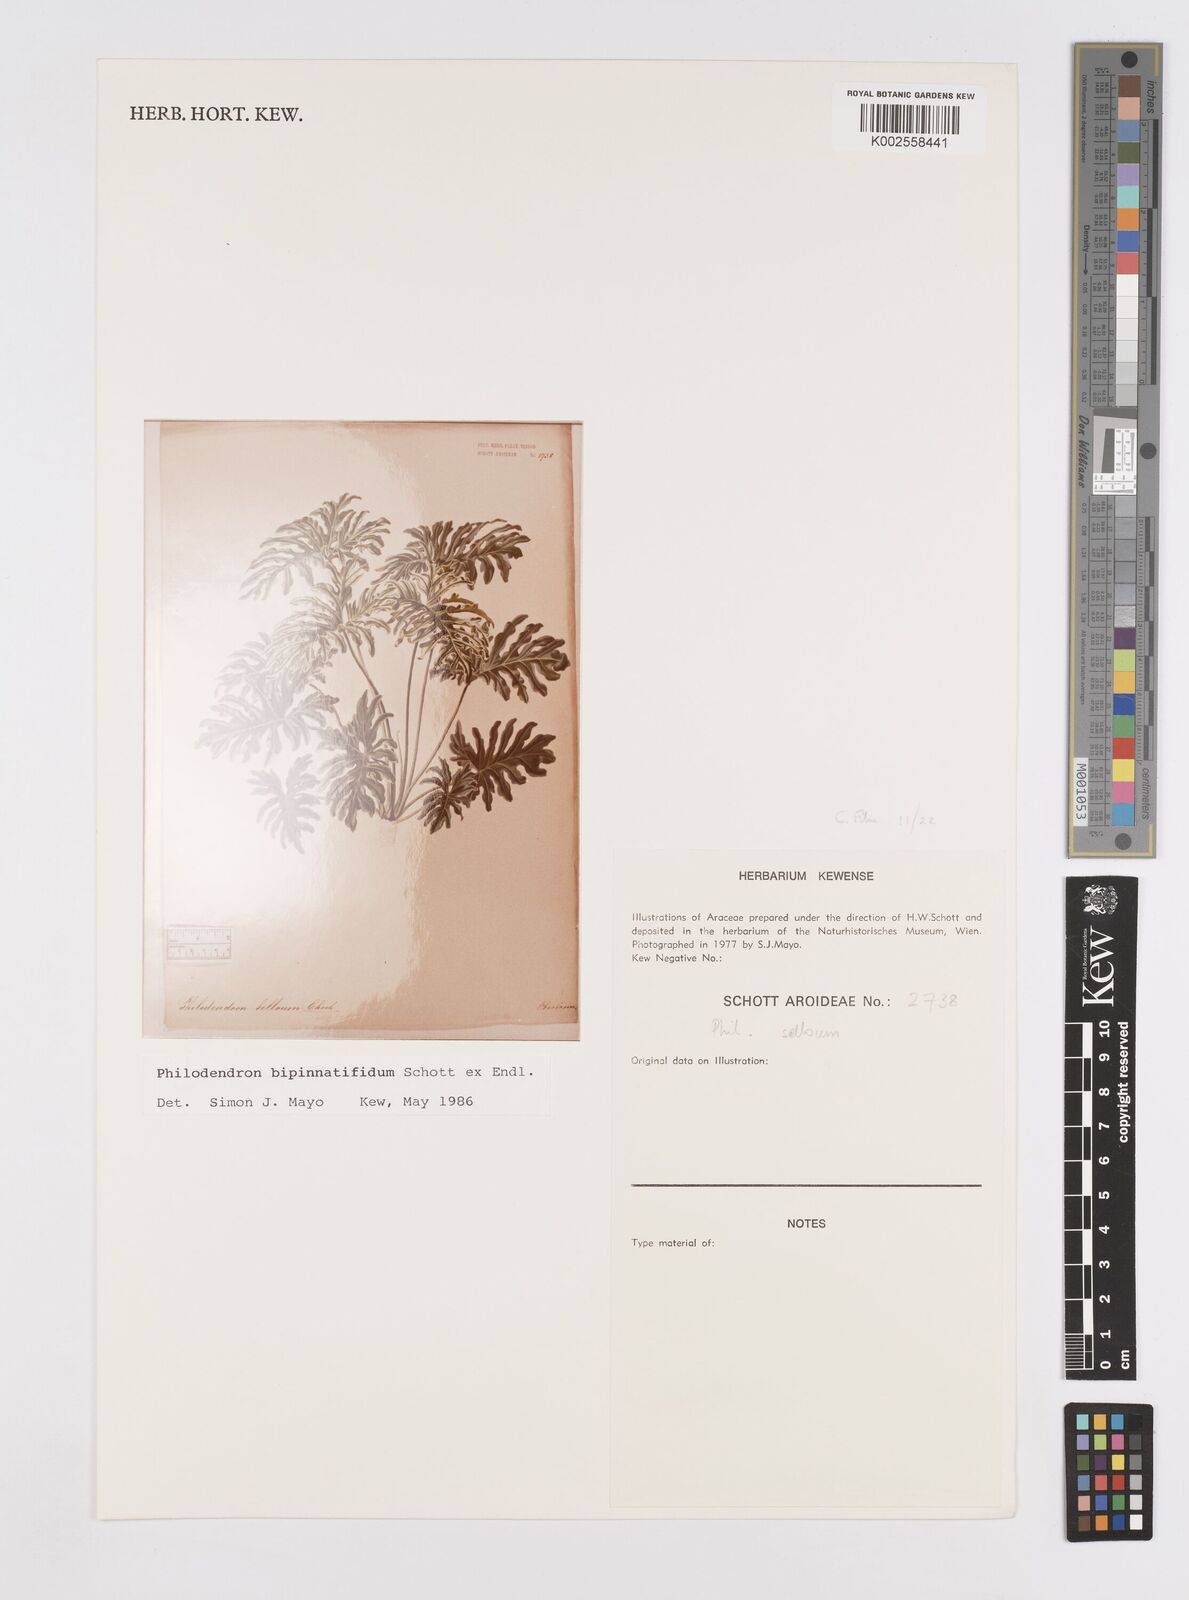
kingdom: Plantae
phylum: Tracheophyta
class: Liliopsida
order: Alismatales
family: Araceae
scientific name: Araceae
